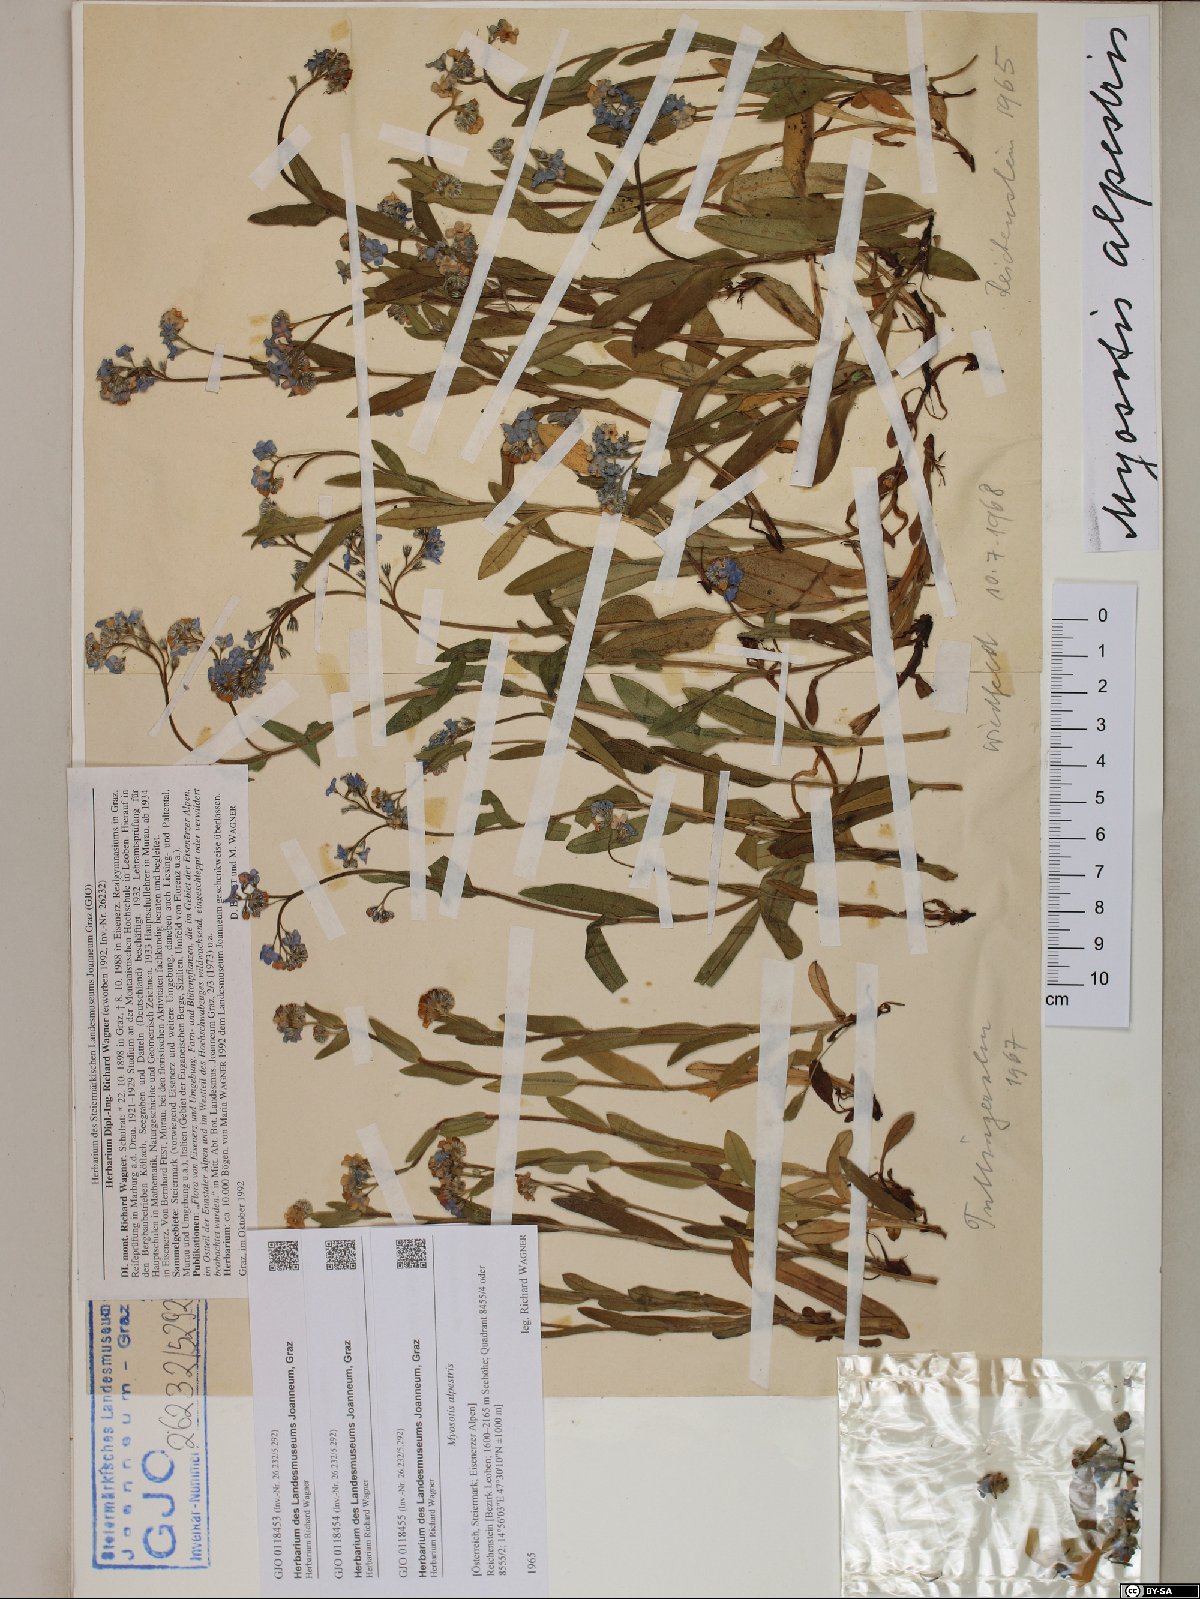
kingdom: Plantae
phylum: Tracheophyta
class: Magnoliopsida
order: Boraginales
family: Boraginaceae
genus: Myosotis
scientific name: Myosotis alpestris
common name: Alpine forget-me-not
